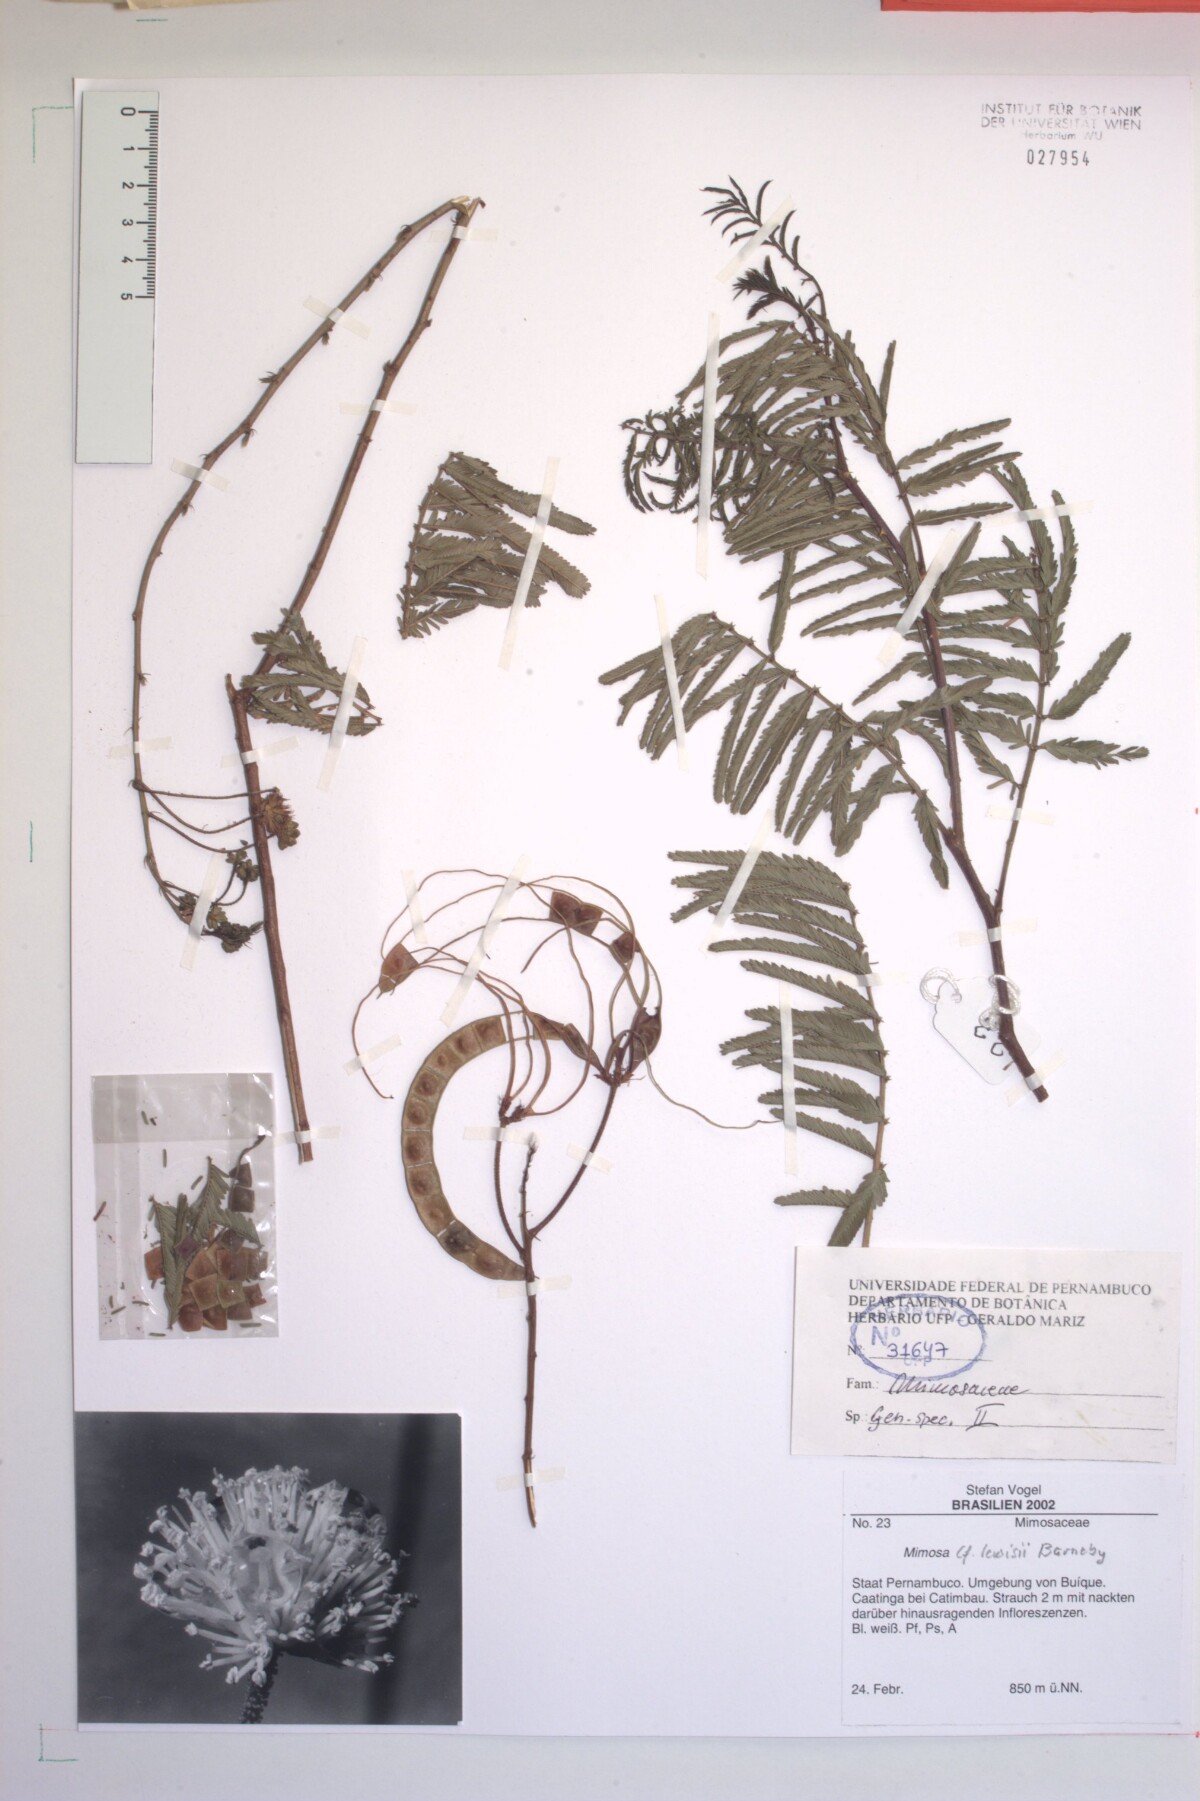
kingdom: Plantae
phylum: Tracheophyta
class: Magnoliopsida
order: Fabales
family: Fabaceae
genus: Mimosa
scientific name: Mimosa lewisii
